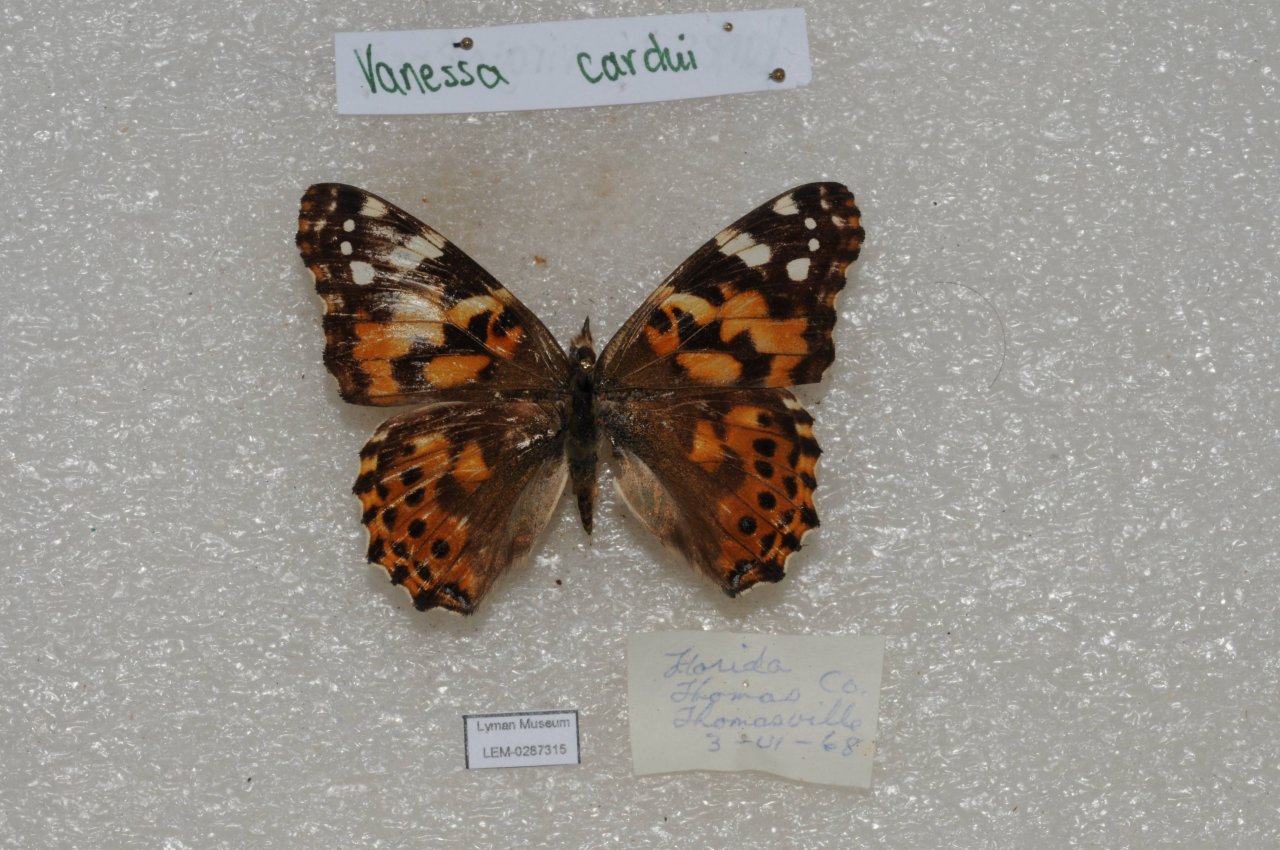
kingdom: Animalia
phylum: Arthropoda
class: Insecta
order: Lepidoptera
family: Nymphalidae
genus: Vanessa
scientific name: Vanessa cardui
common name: Painted Lady
